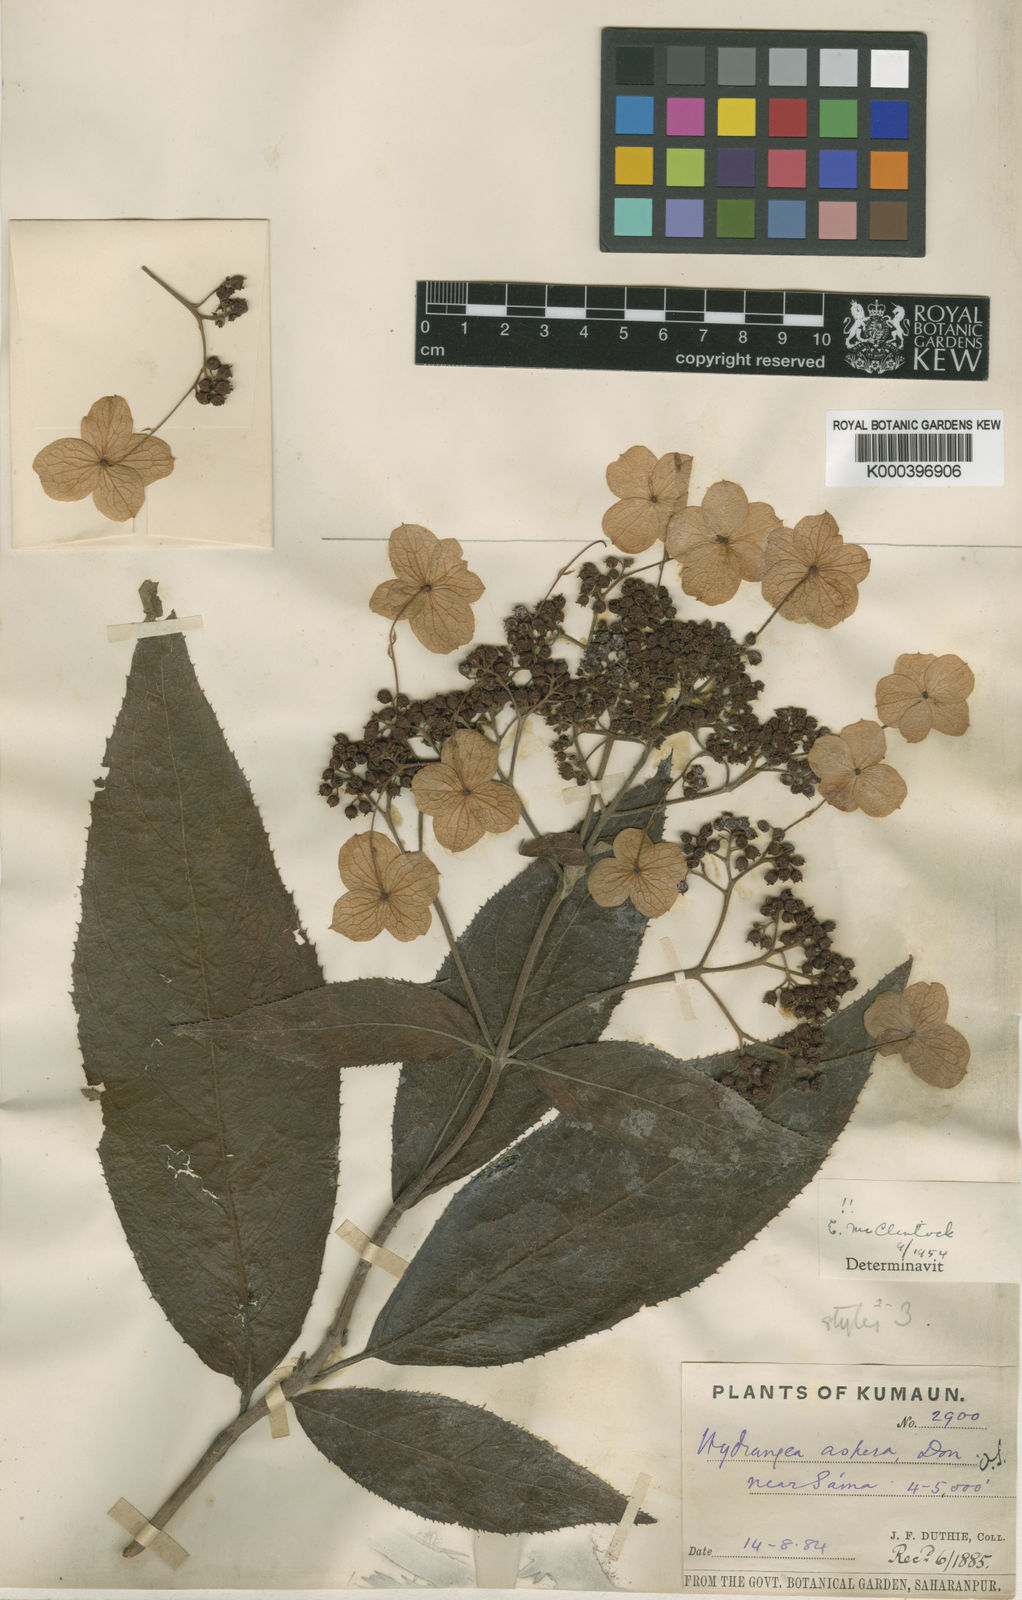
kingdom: Plantae
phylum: Tracheophyta
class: Magnoliopsida
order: Cornales
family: Hydrangeaceae
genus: Hydrangea
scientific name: Hydrangea aspera
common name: Rough-leaf hydrangea
